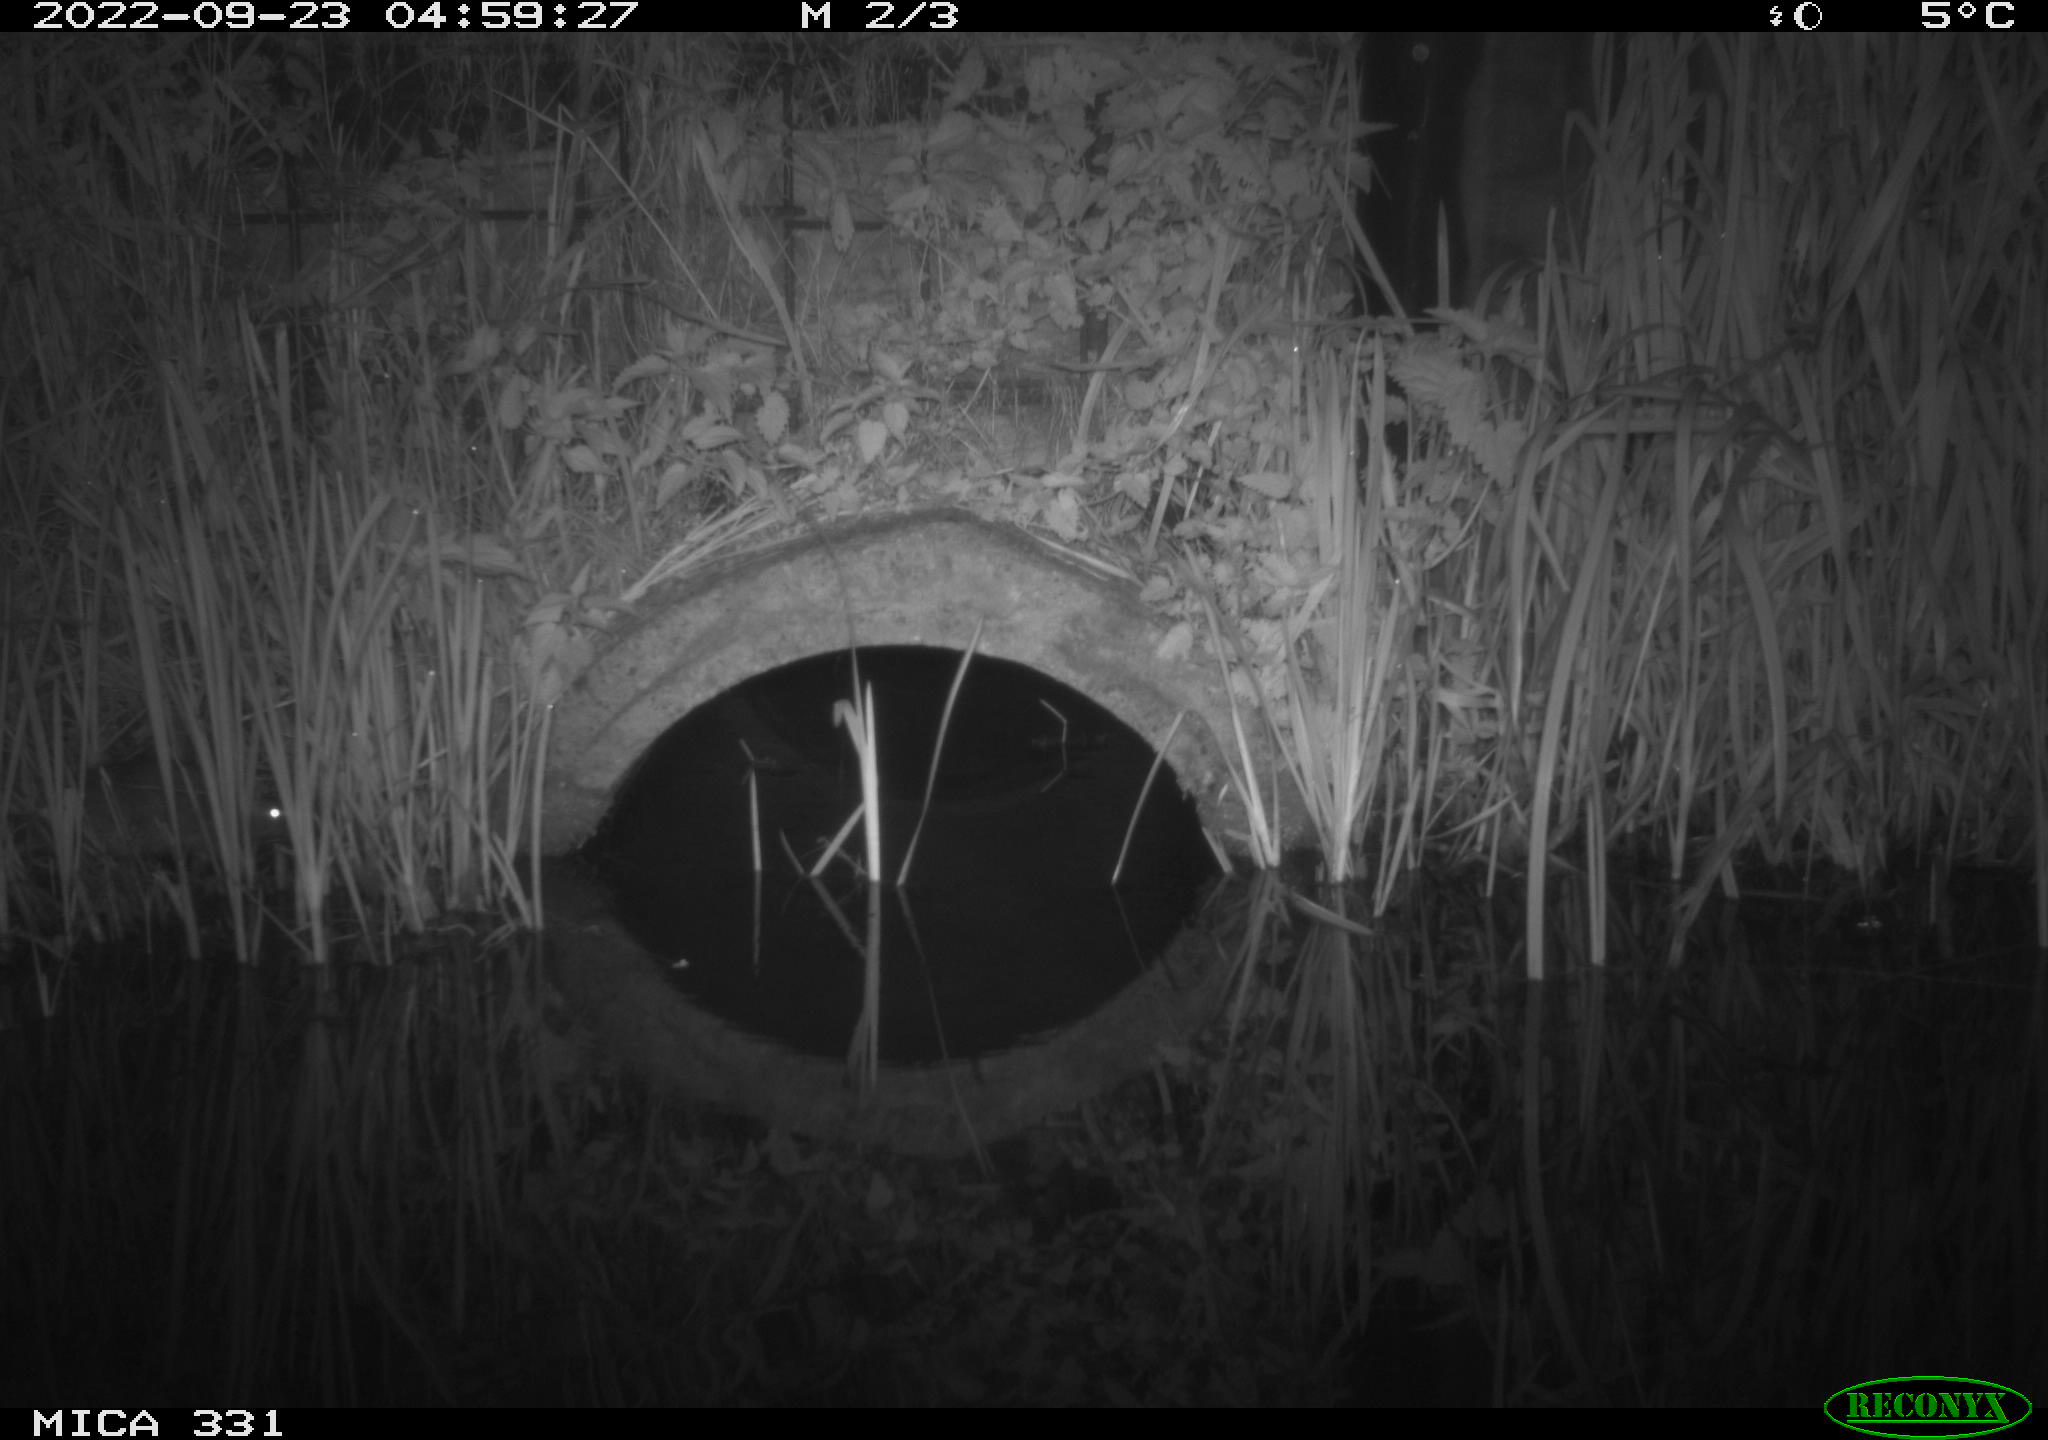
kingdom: Animalia
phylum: Chordata
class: Mammalia
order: Rodentia
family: Muridae
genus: Rattus
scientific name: Rattus norvegicus
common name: Brown rat
